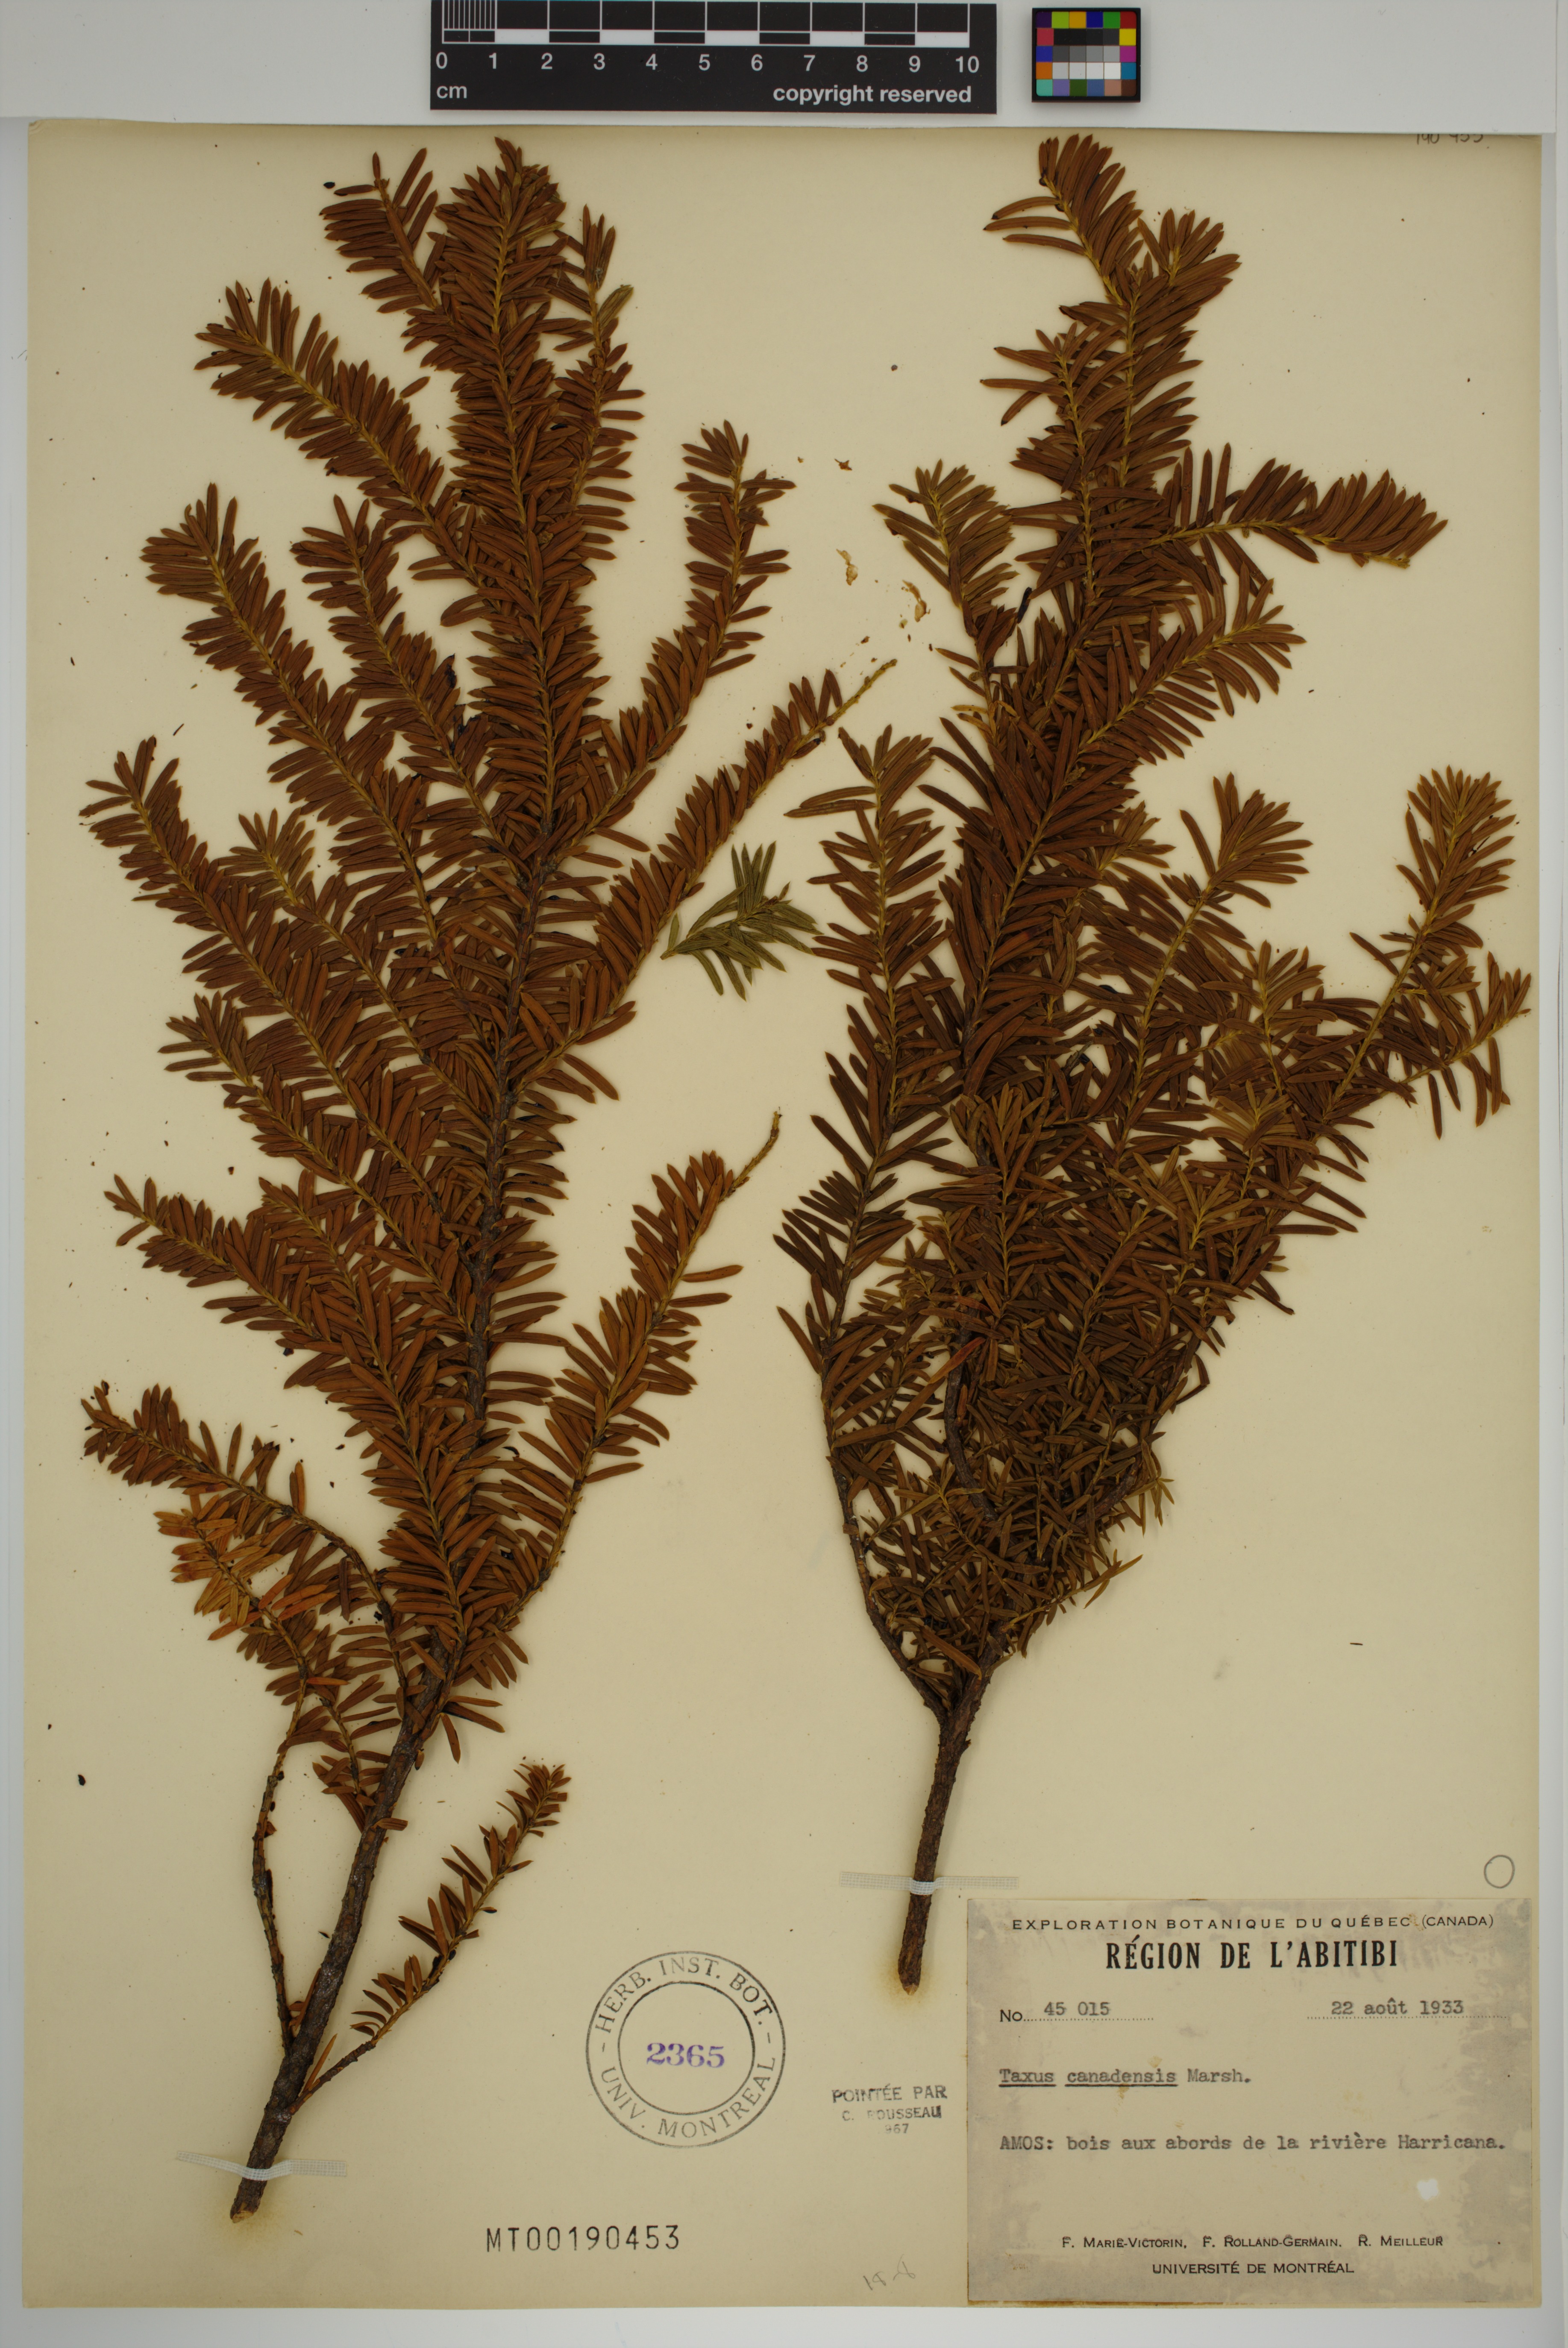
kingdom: Plantae
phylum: Tracheophyta
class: Pinopsida
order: Pinales
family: Taxaceae
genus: Taxus
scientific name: Taxus canadensis
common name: American yew
